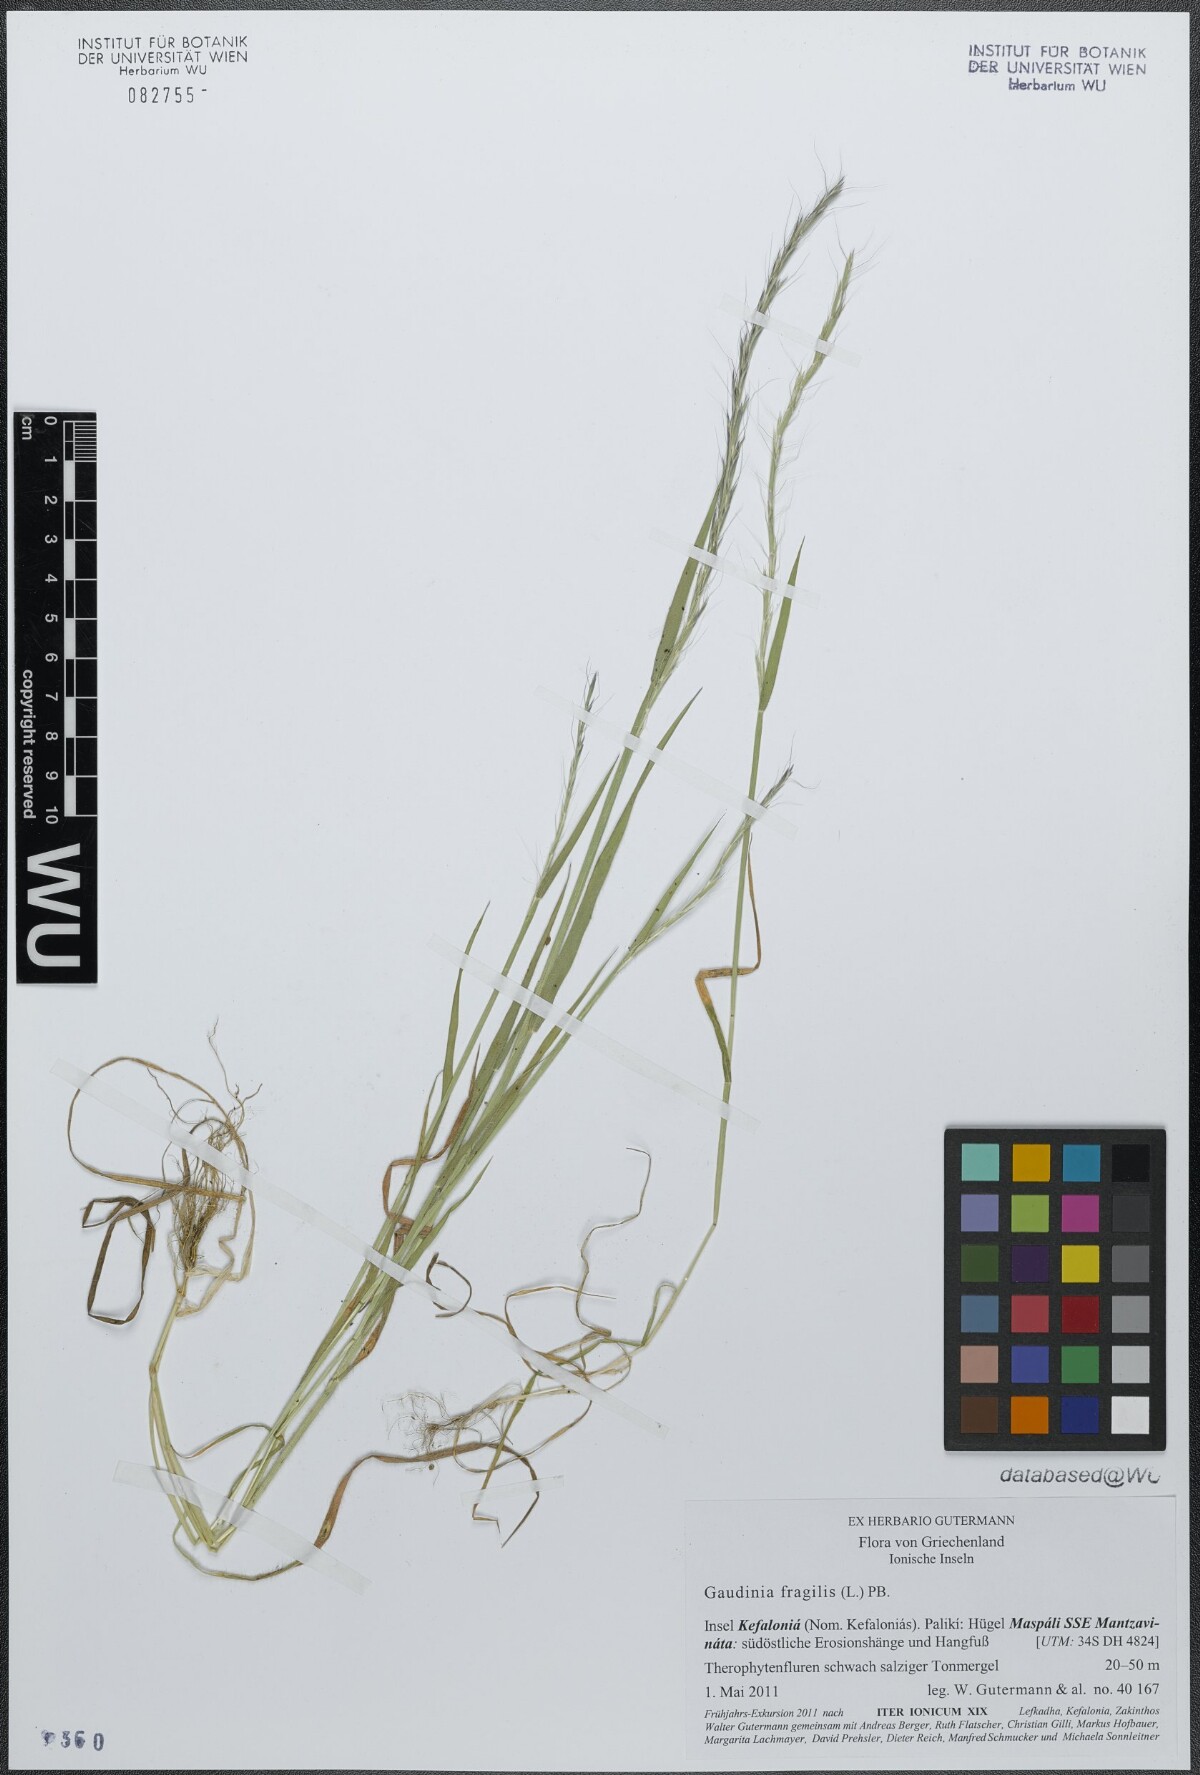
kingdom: Plantae
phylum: Tracheophyta
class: Liliopsida
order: Poales
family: Poaceae
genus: Gaudinia
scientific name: Gaudinia fragilis
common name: French oat-grass
